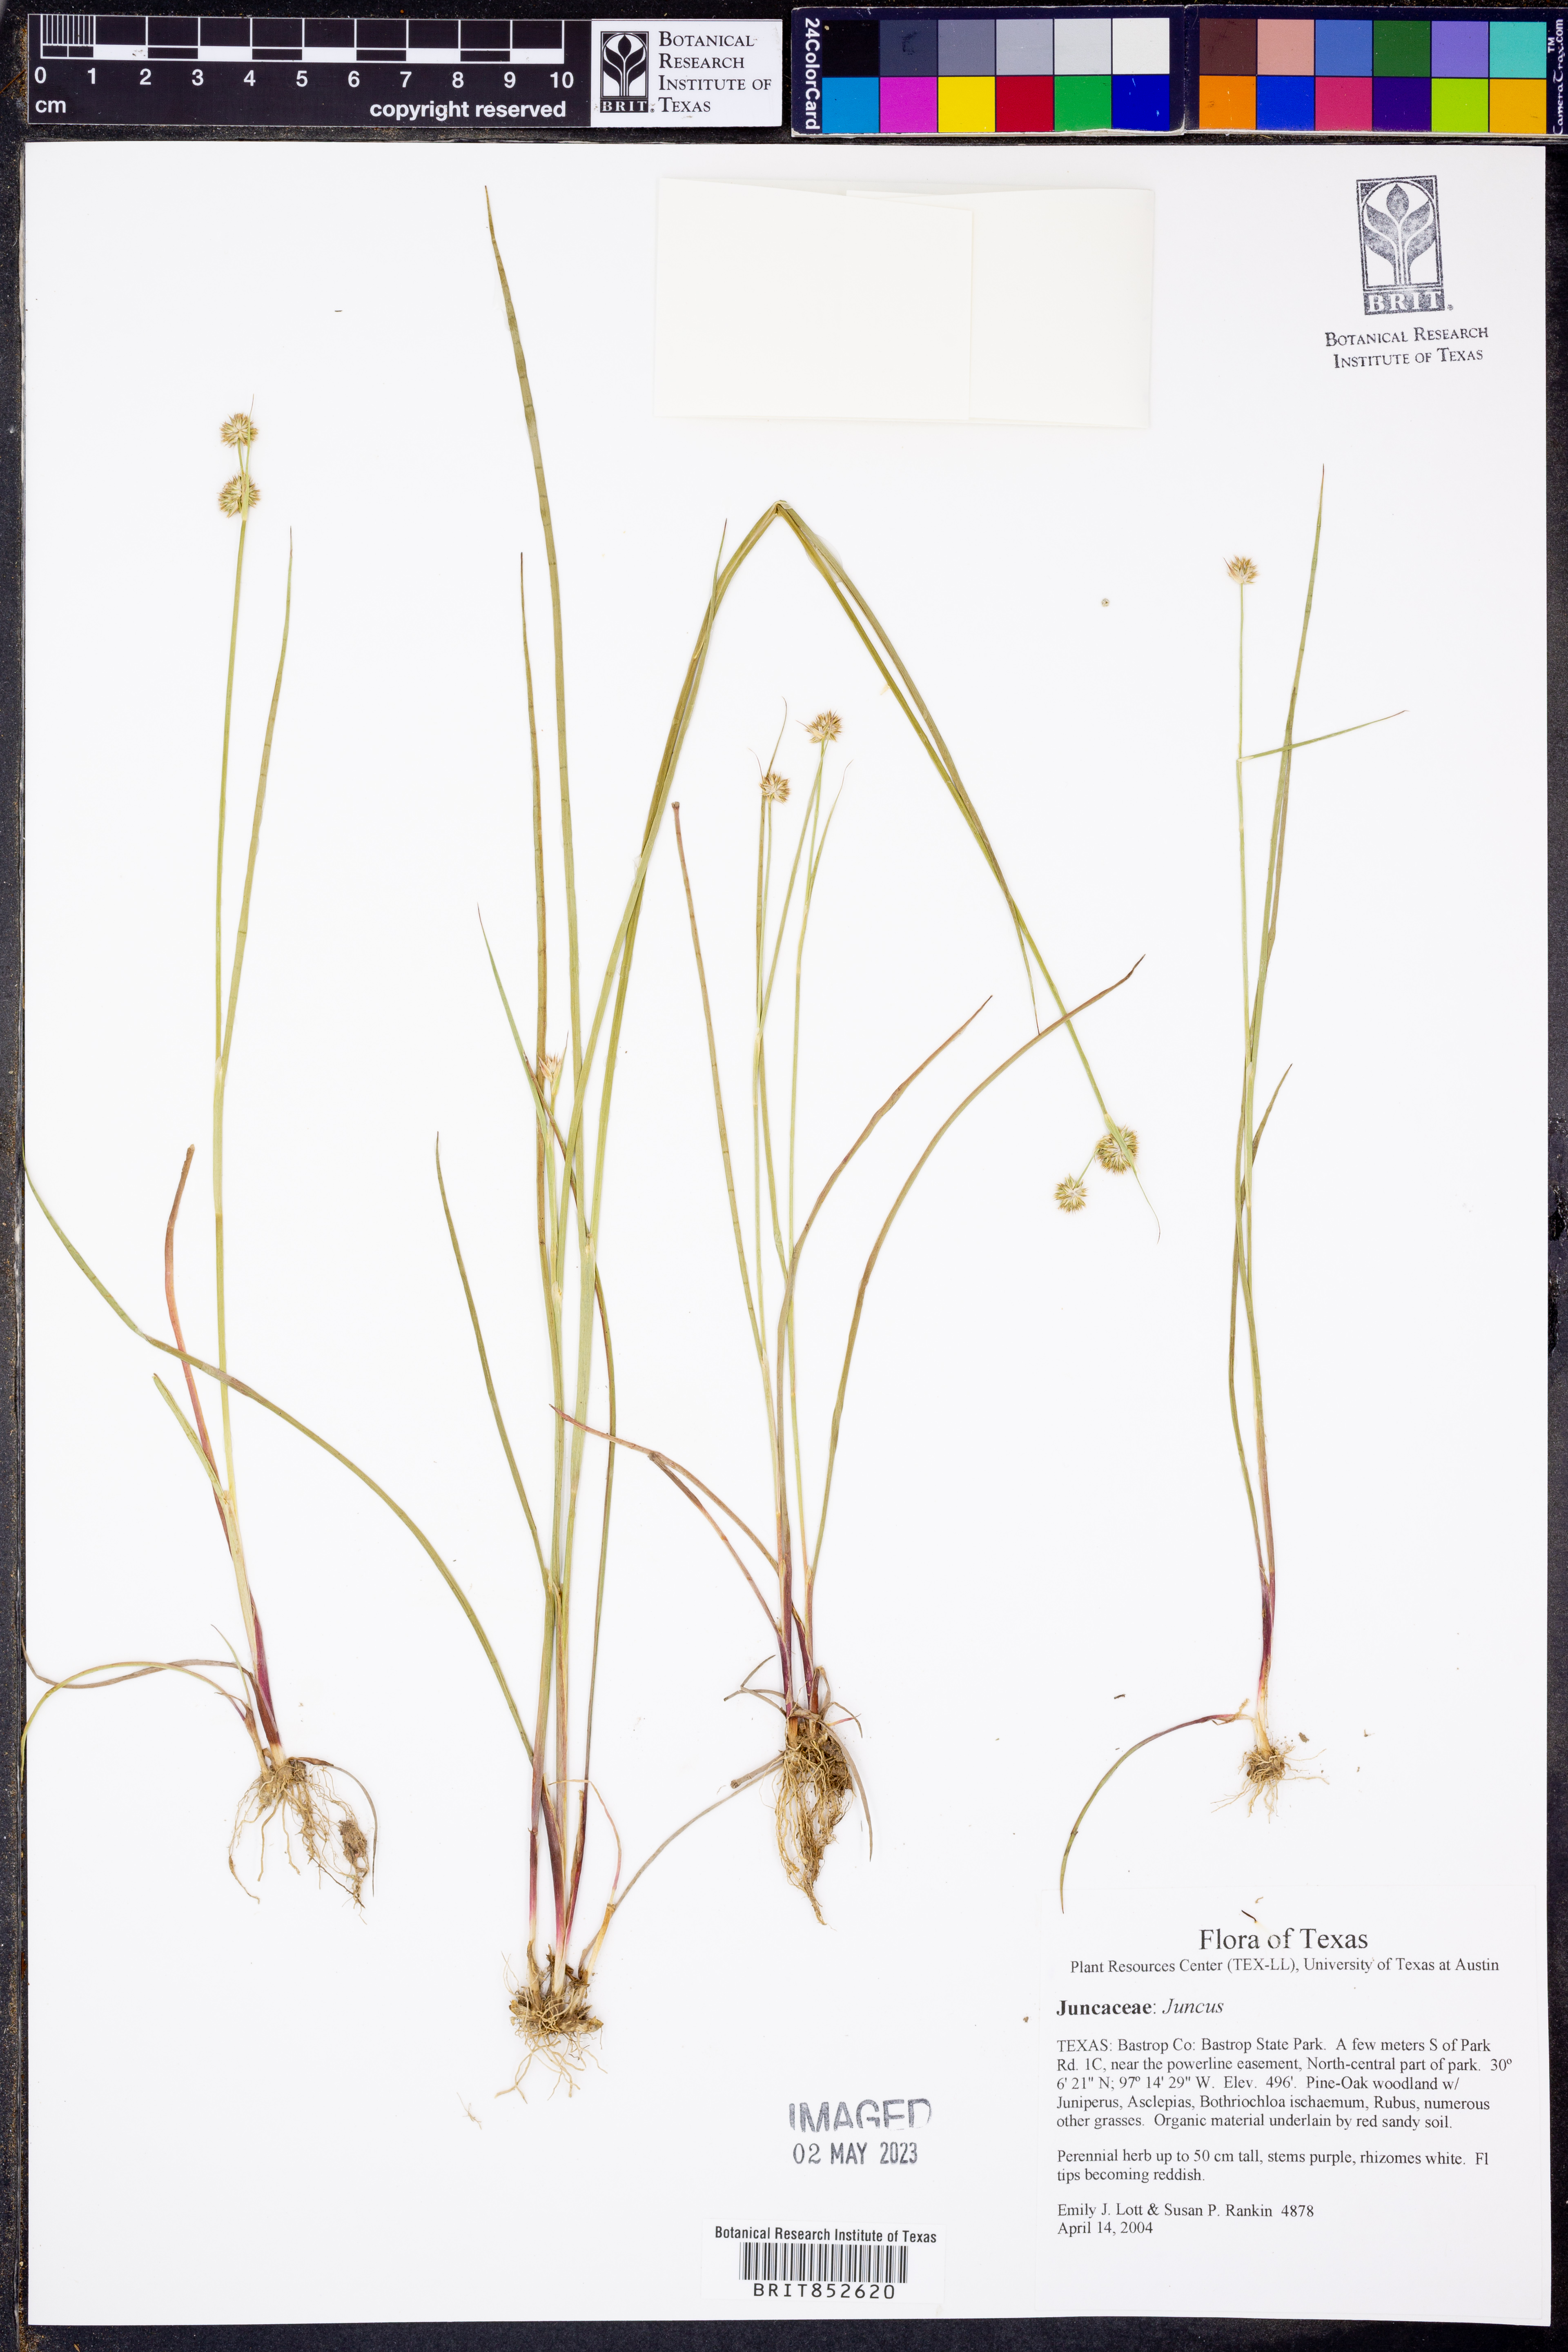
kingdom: Plantae
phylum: Tracheophyta
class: Liliopsida
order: Poales
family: Juncaceae
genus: Juncus
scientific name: Juncus
